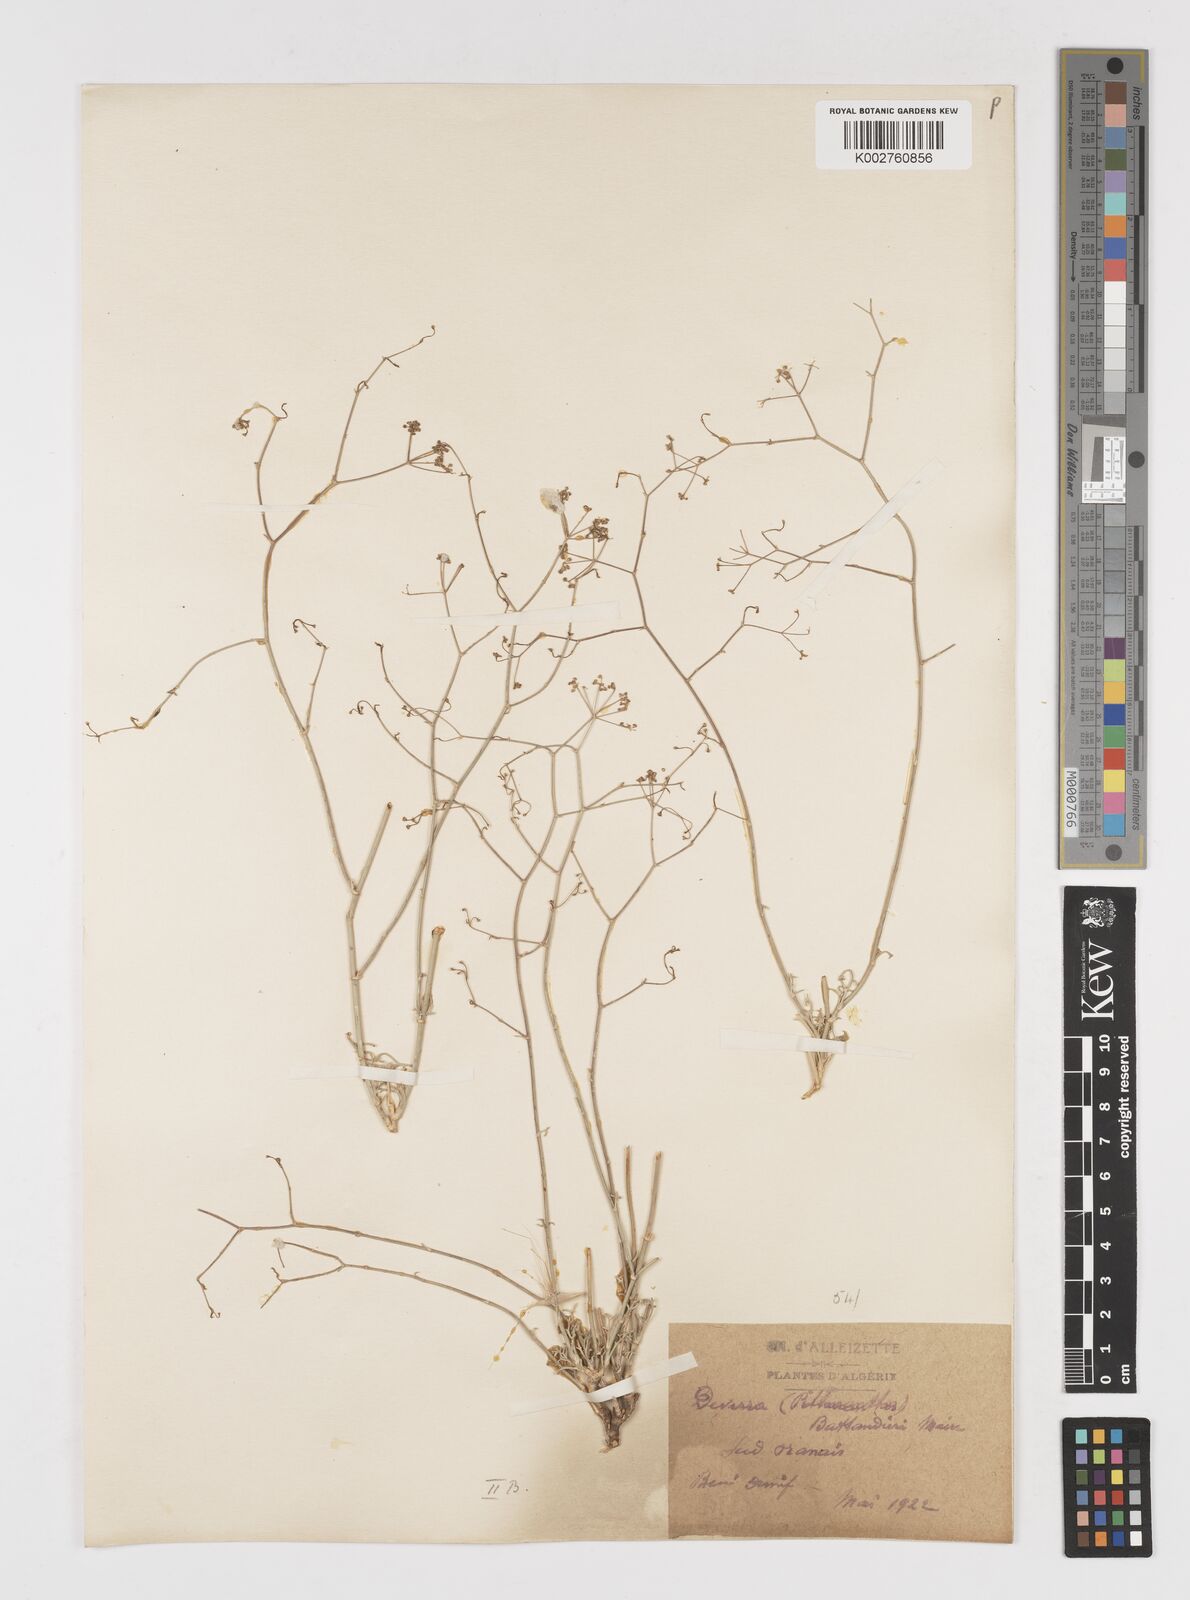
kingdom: Plantae
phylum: Tracheophyta
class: Magnoliopsida
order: Apiales
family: Apiaceae
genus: Deverra
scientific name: Deverra battandieri
